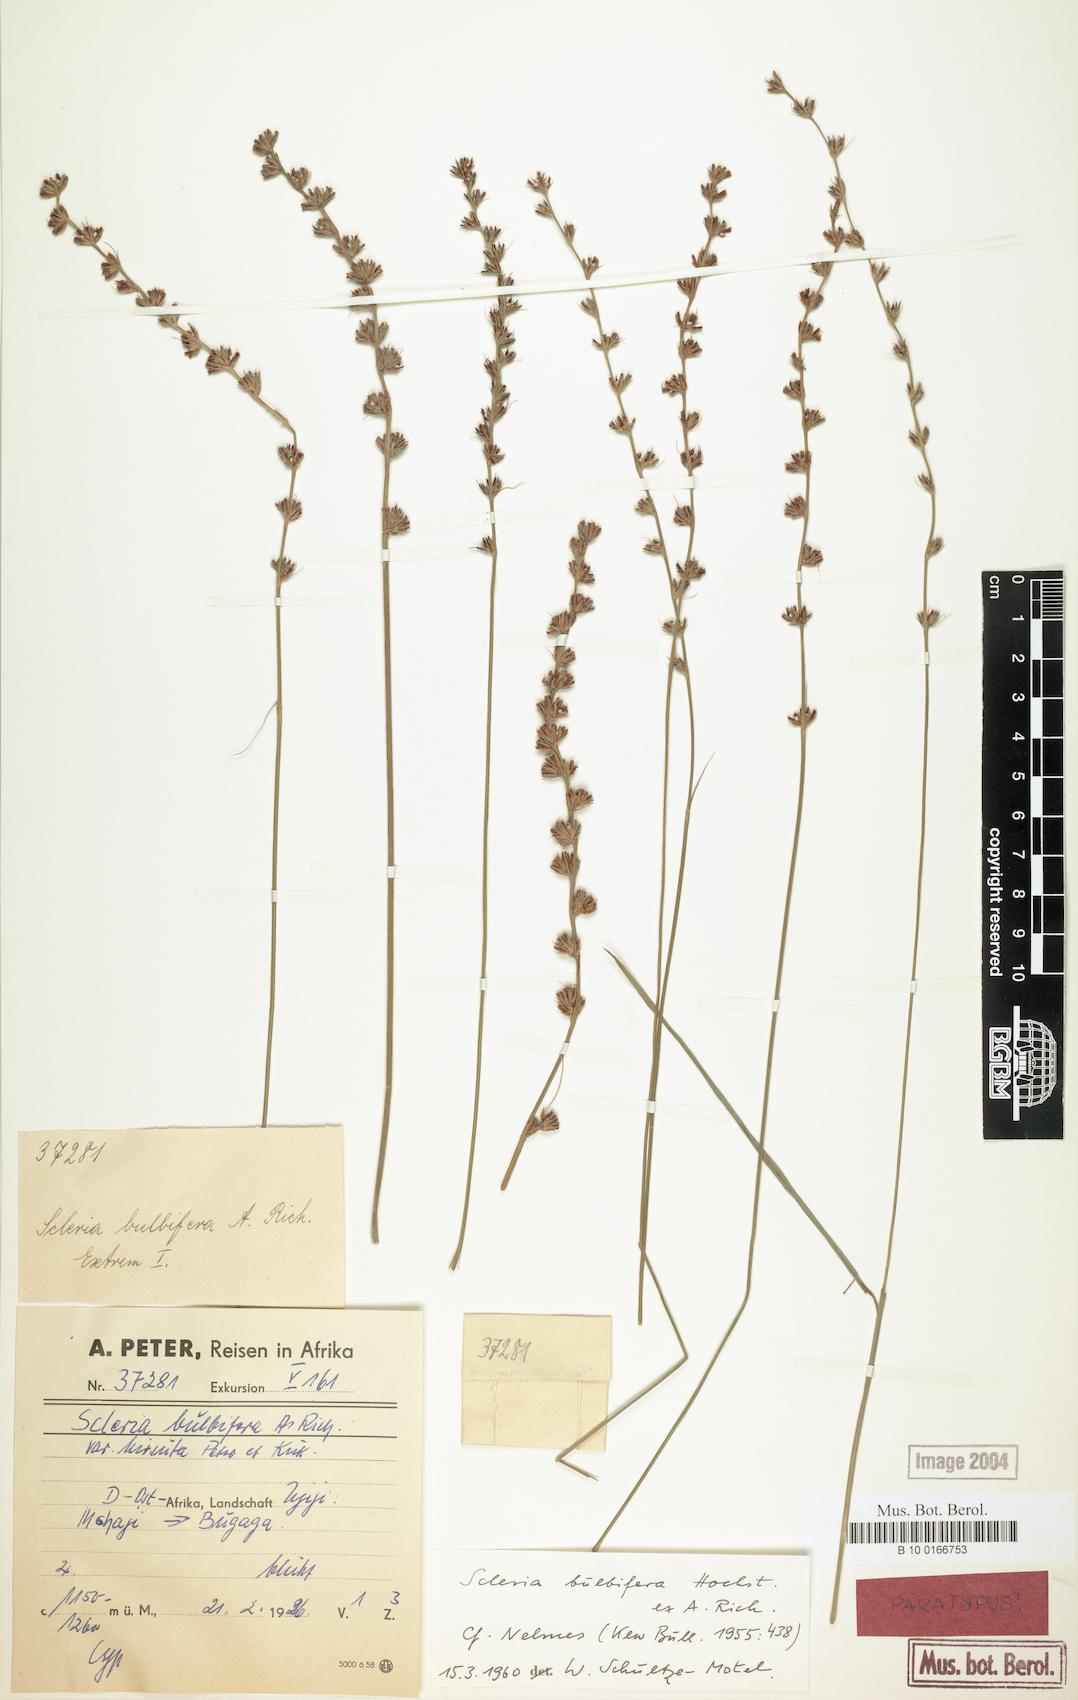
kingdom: Plantae
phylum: Tracheophyta
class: Liliopsida
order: Poales
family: Cyperaceae
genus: Scleria
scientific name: Scleria bulbifera
